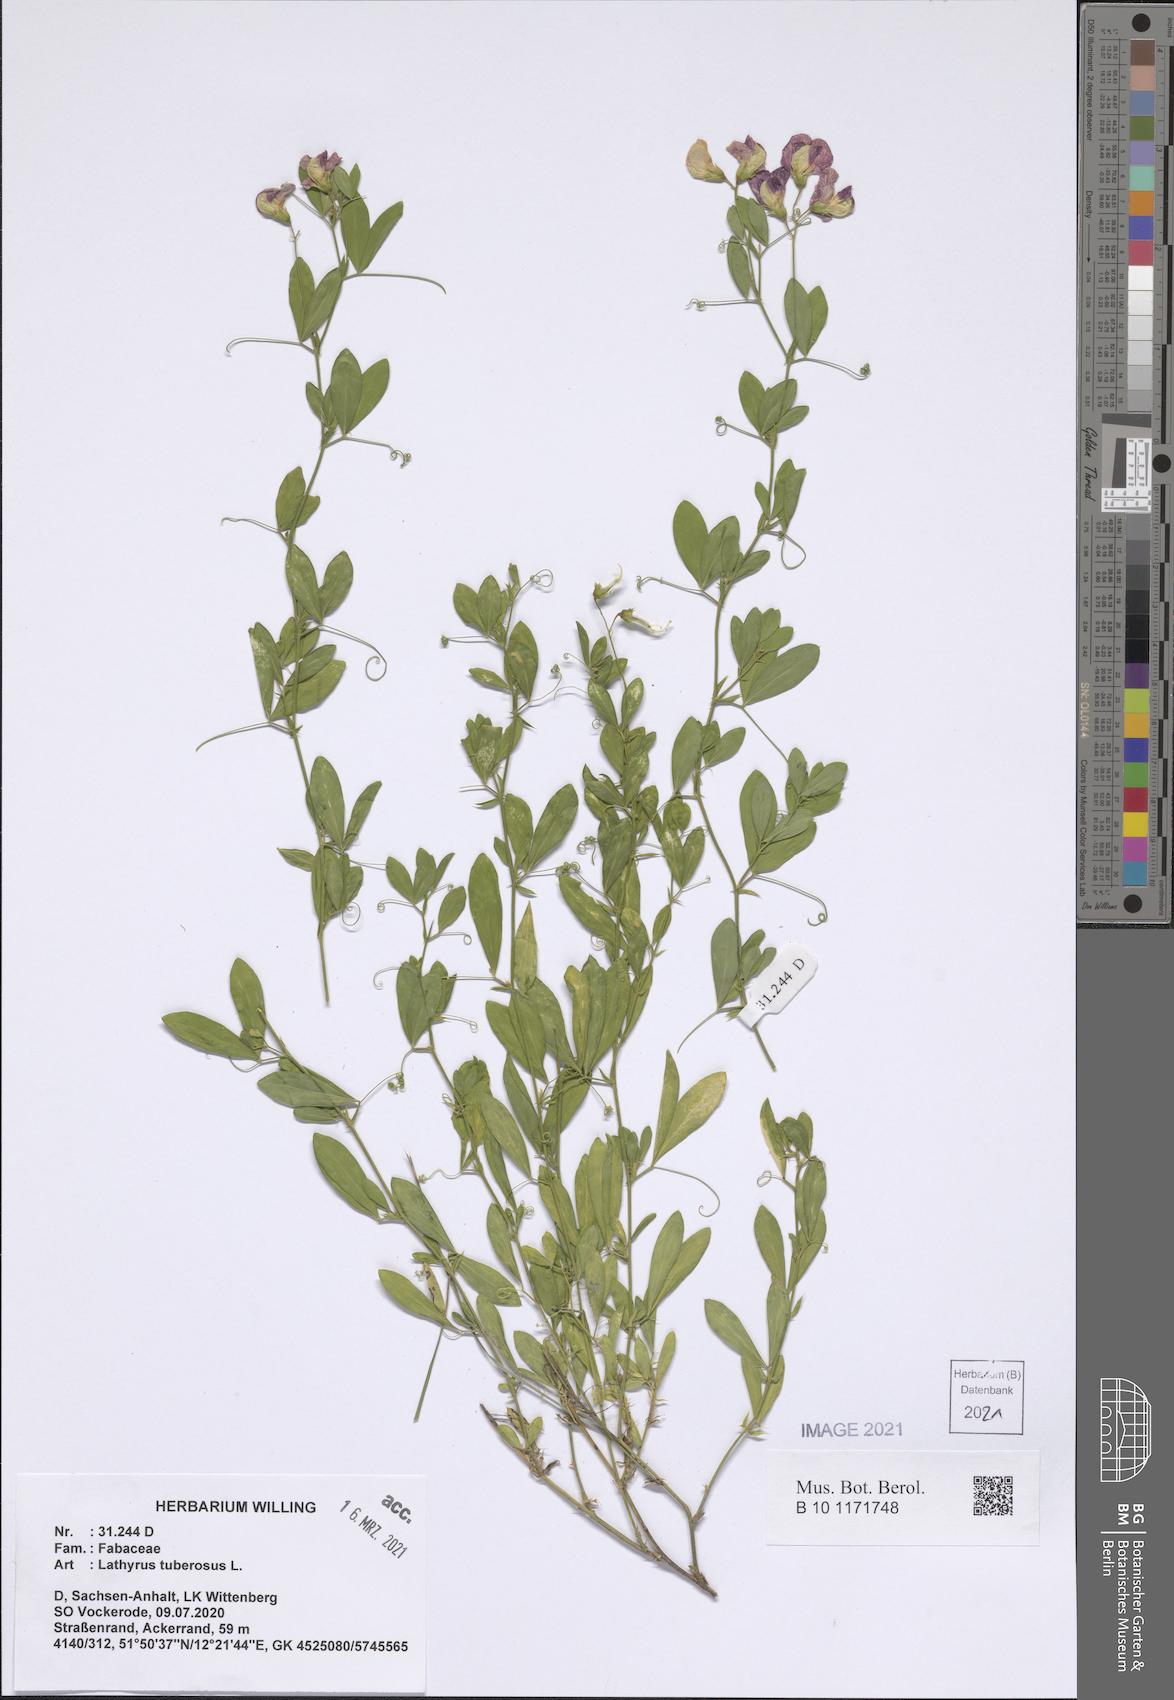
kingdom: Plantae
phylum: Tracheophyta
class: Magnoliopsida
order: Fabales
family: Fabaceae
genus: Lathyrus
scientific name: Lathyrus tuberosus
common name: Tuberous pea
